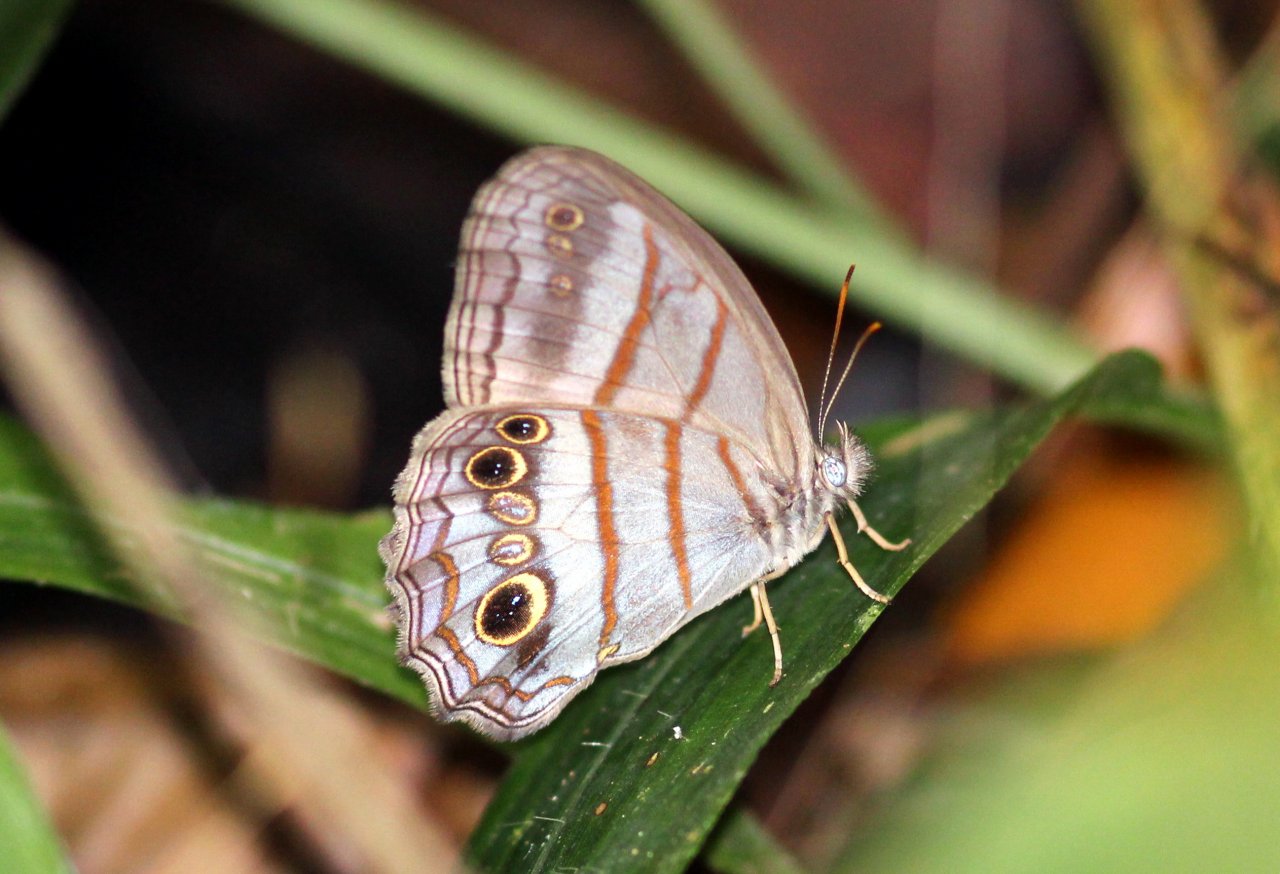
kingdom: Animalia
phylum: Arthropoda
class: Insecta
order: Lepidoptera
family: Nymphalidae
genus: Magneuptychia
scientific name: Magneuptychia libye
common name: Blue-gray Satyr
